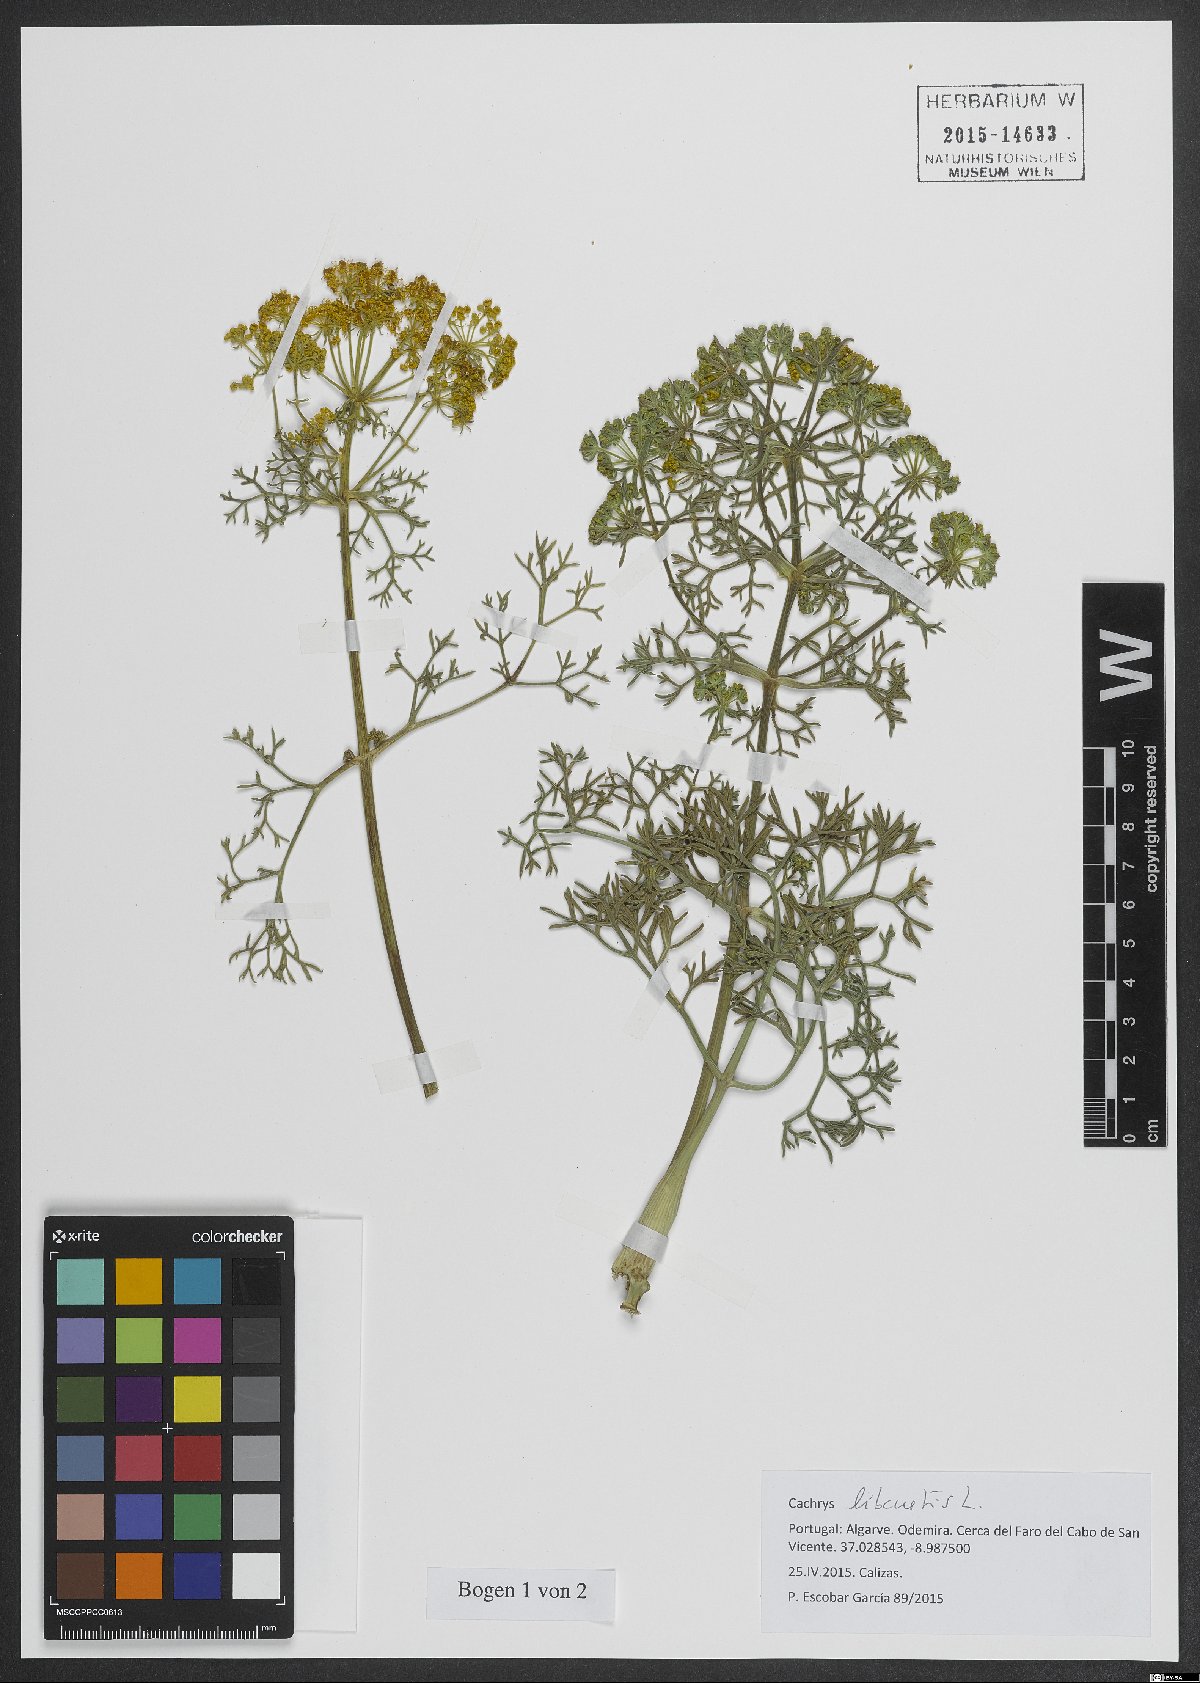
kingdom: Plantae
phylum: Tracheophyta
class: Magnoliopsida
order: Apiales
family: Apiaceae
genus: Cachrys
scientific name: Cachrys libanotis
